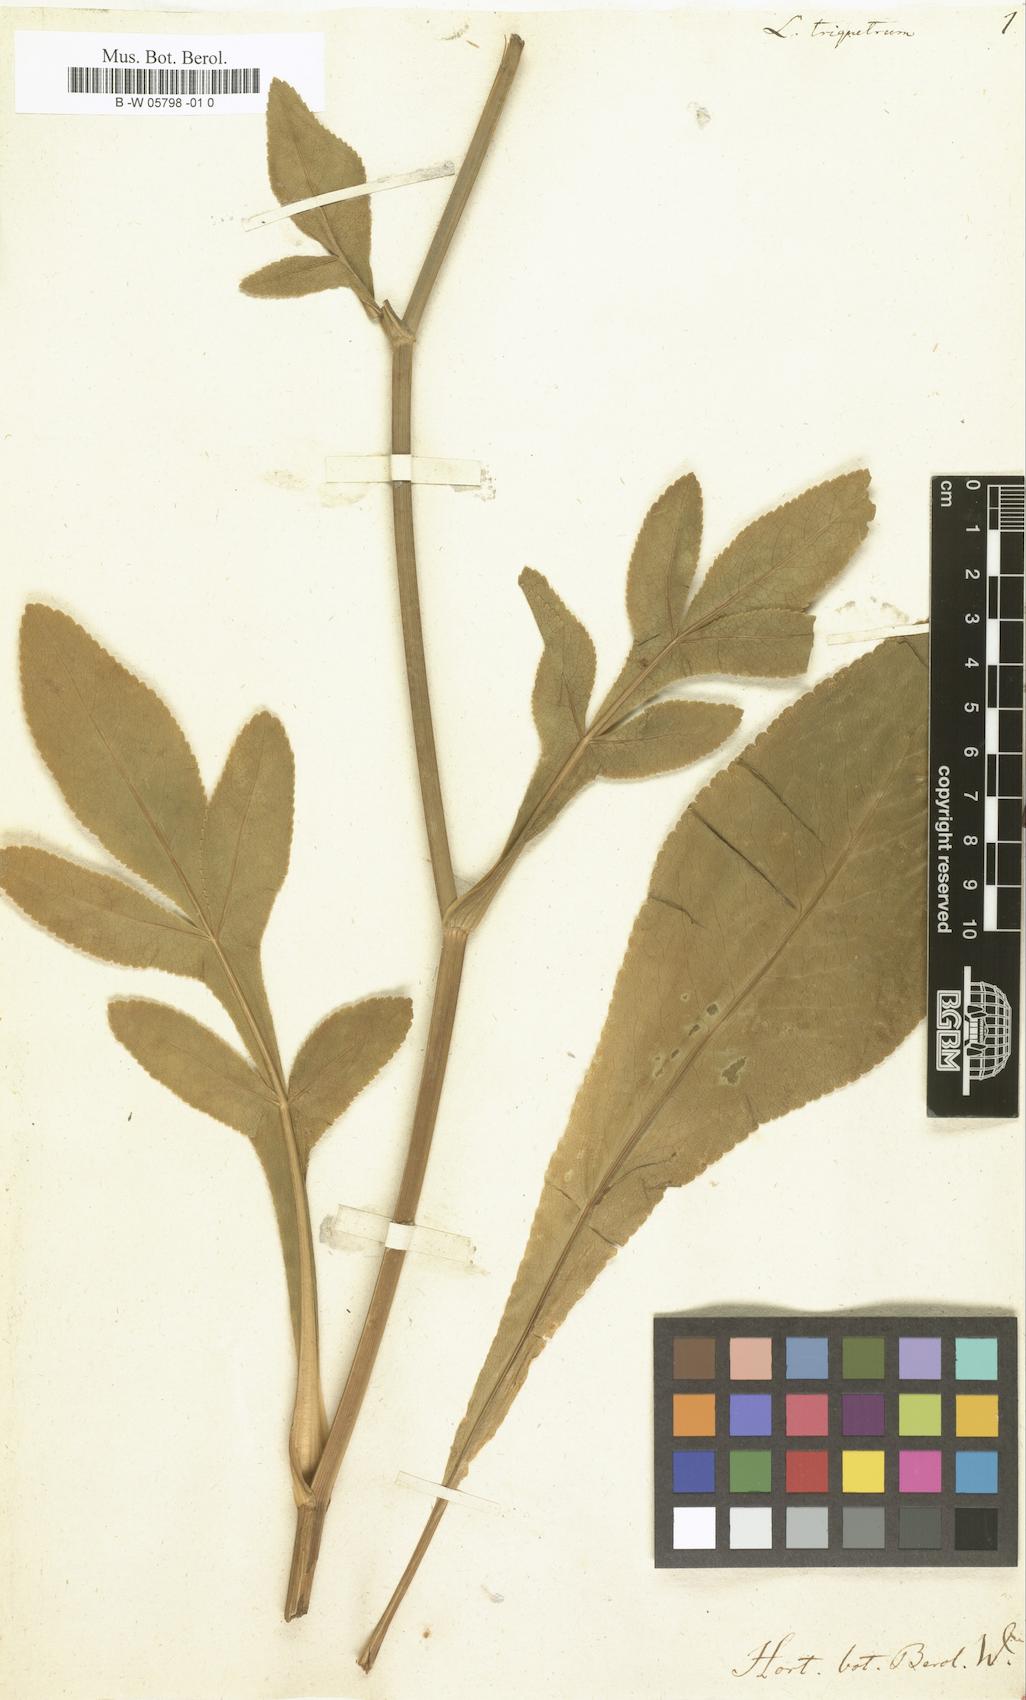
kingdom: Plantae
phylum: Tracheophyta
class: Magnoliopsida
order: Apiales
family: Apiaceae
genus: Heptaptera
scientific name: Heptaptera triquetra
